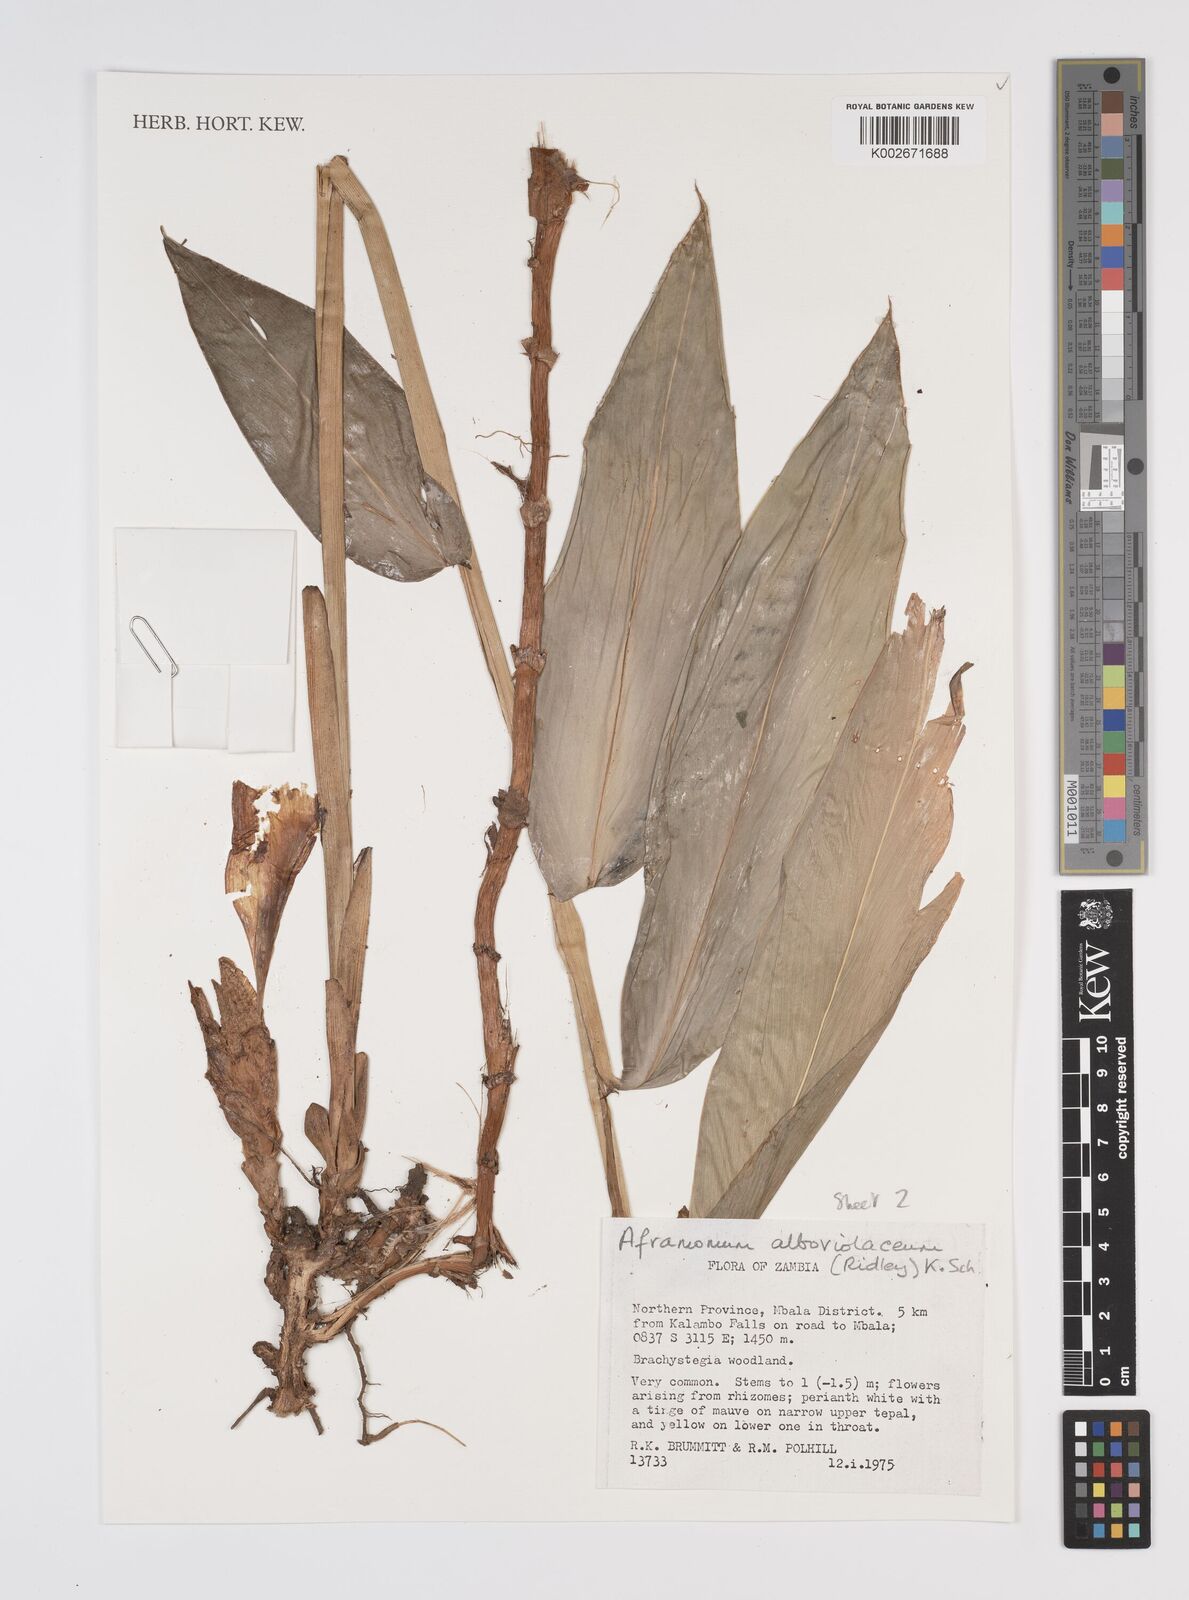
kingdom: Plantae
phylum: Tracheophyta
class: Liliopsida
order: Zingiberales
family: Zingiberaceae
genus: Aframomum
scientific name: Aframomum alboviolaceum
